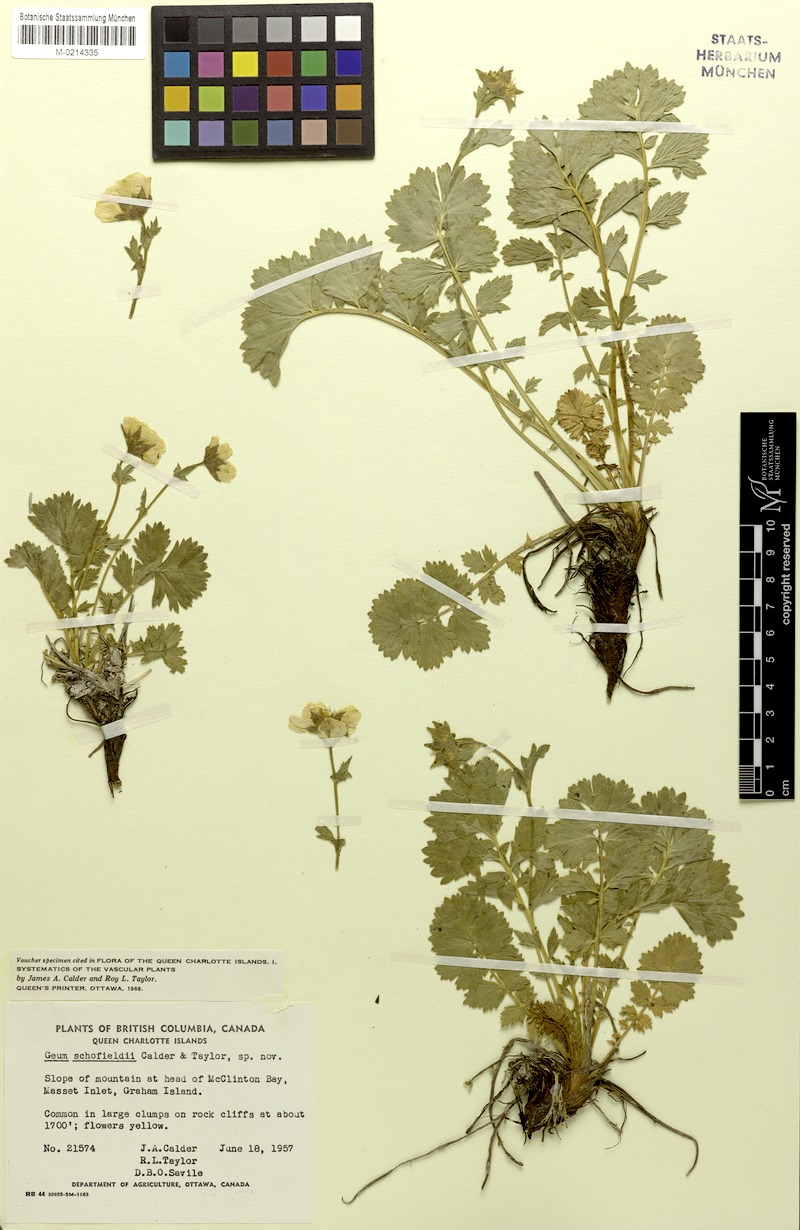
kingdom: Plantae
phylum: Tracheophyta
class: Magnoliopsida
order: Rosales
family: Rosaceae
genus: Geum
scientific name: Geum macranthum
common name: Large-flowered avens
